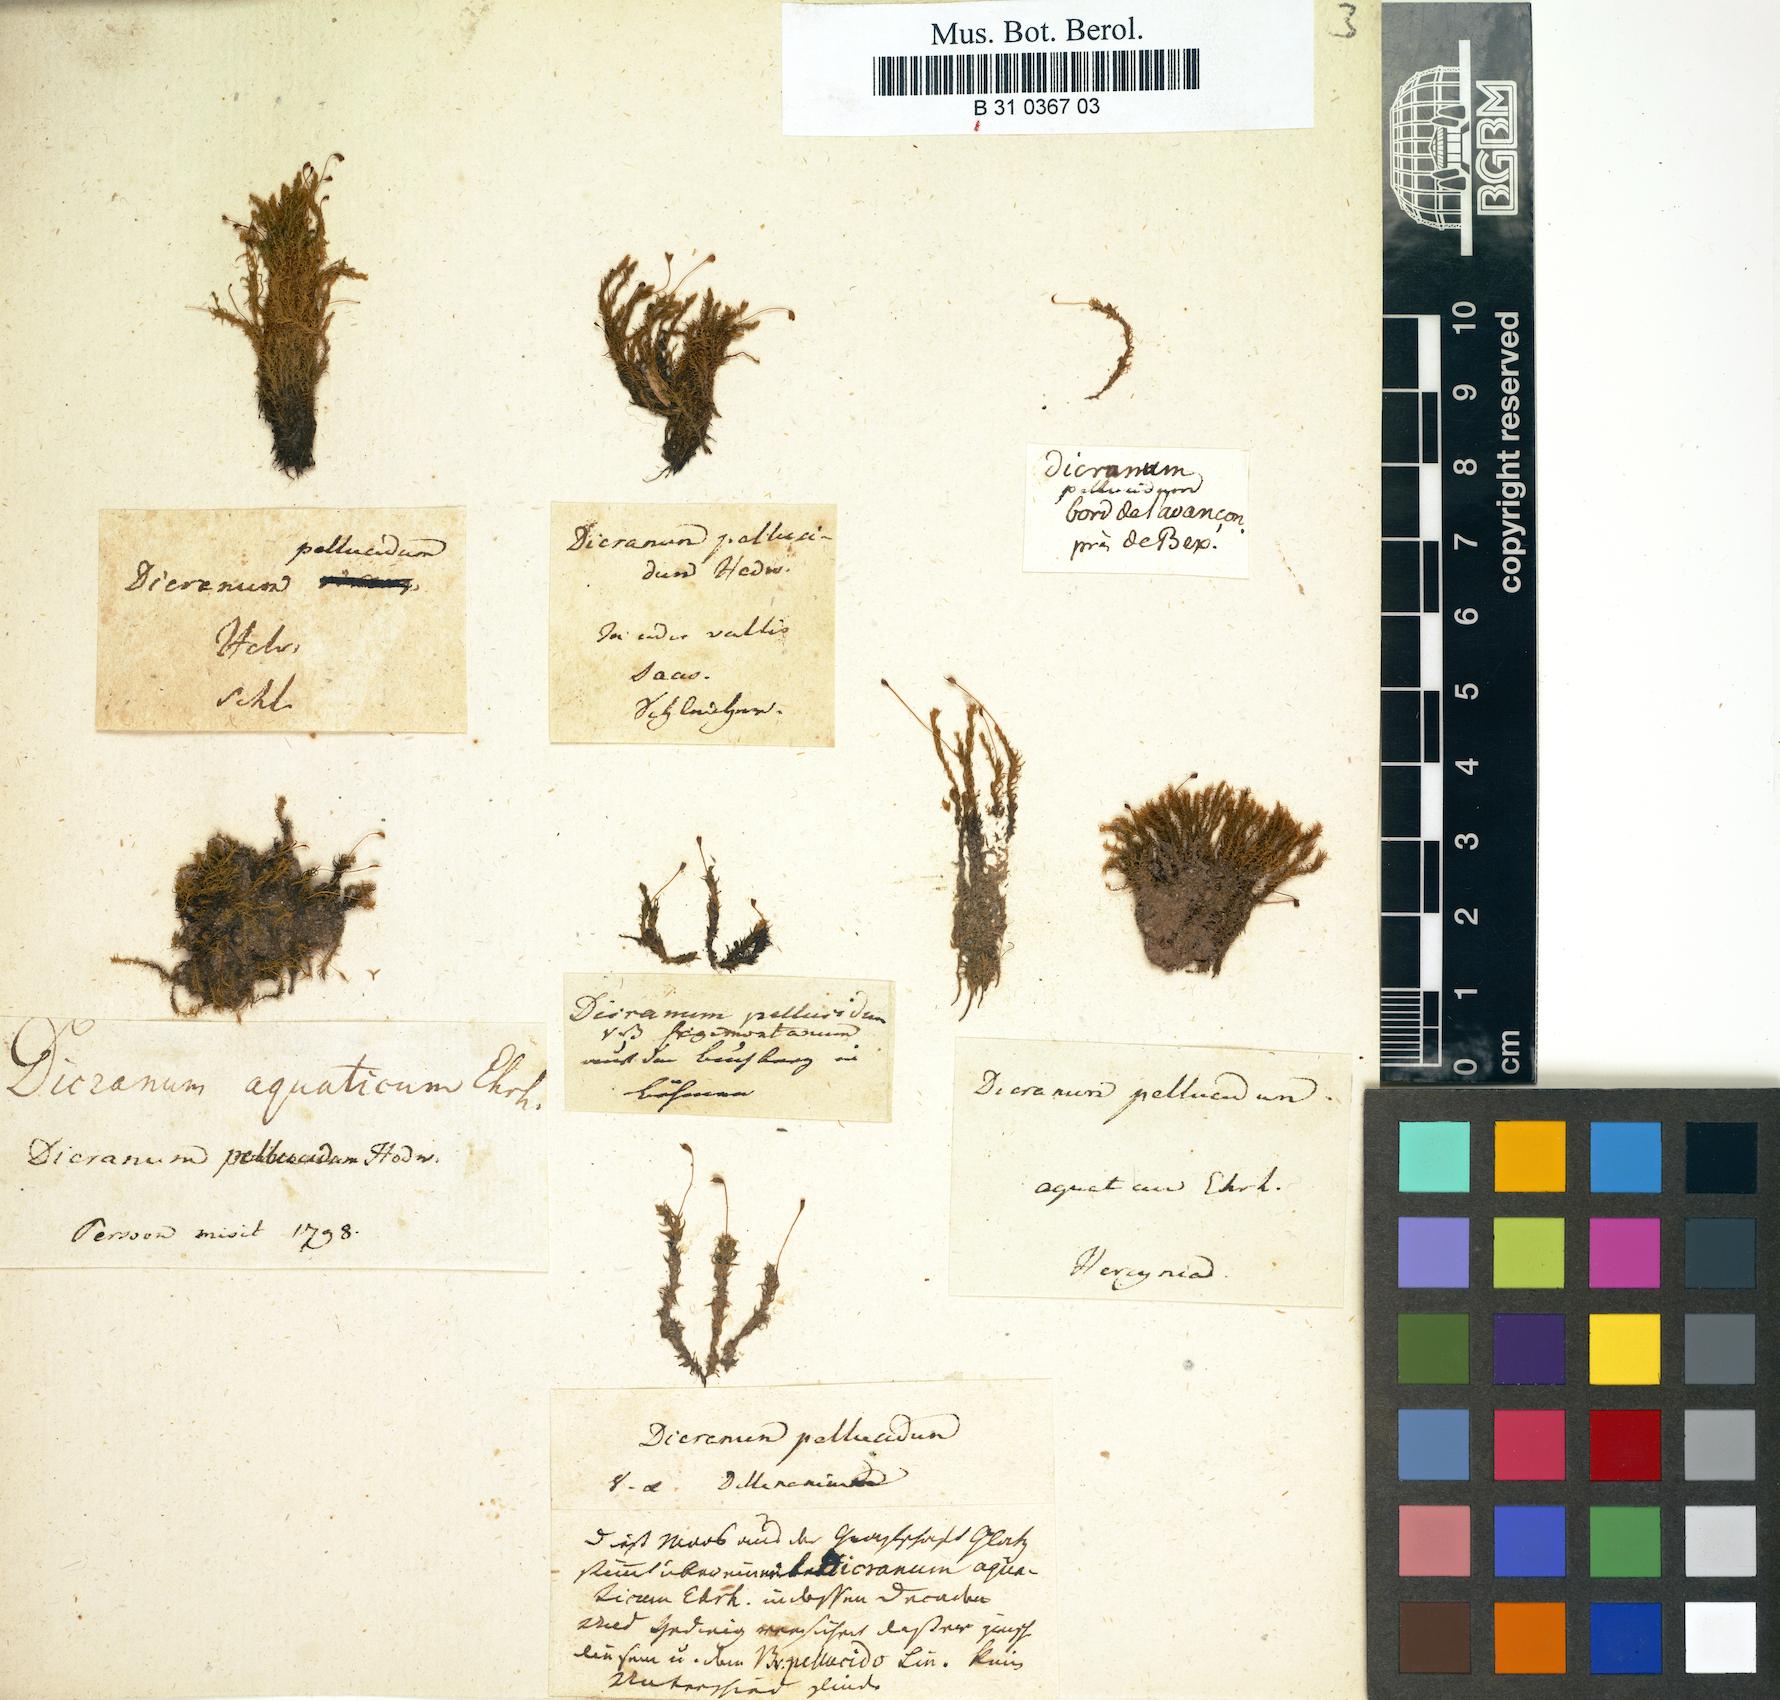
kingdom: Plantae
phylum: Bryophyta
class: Bryopsida
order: Dicranales
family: Aongstroemiaceae
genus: Dichodontium
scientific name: Dichodontium pellucidum
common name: Transparent fork moss
